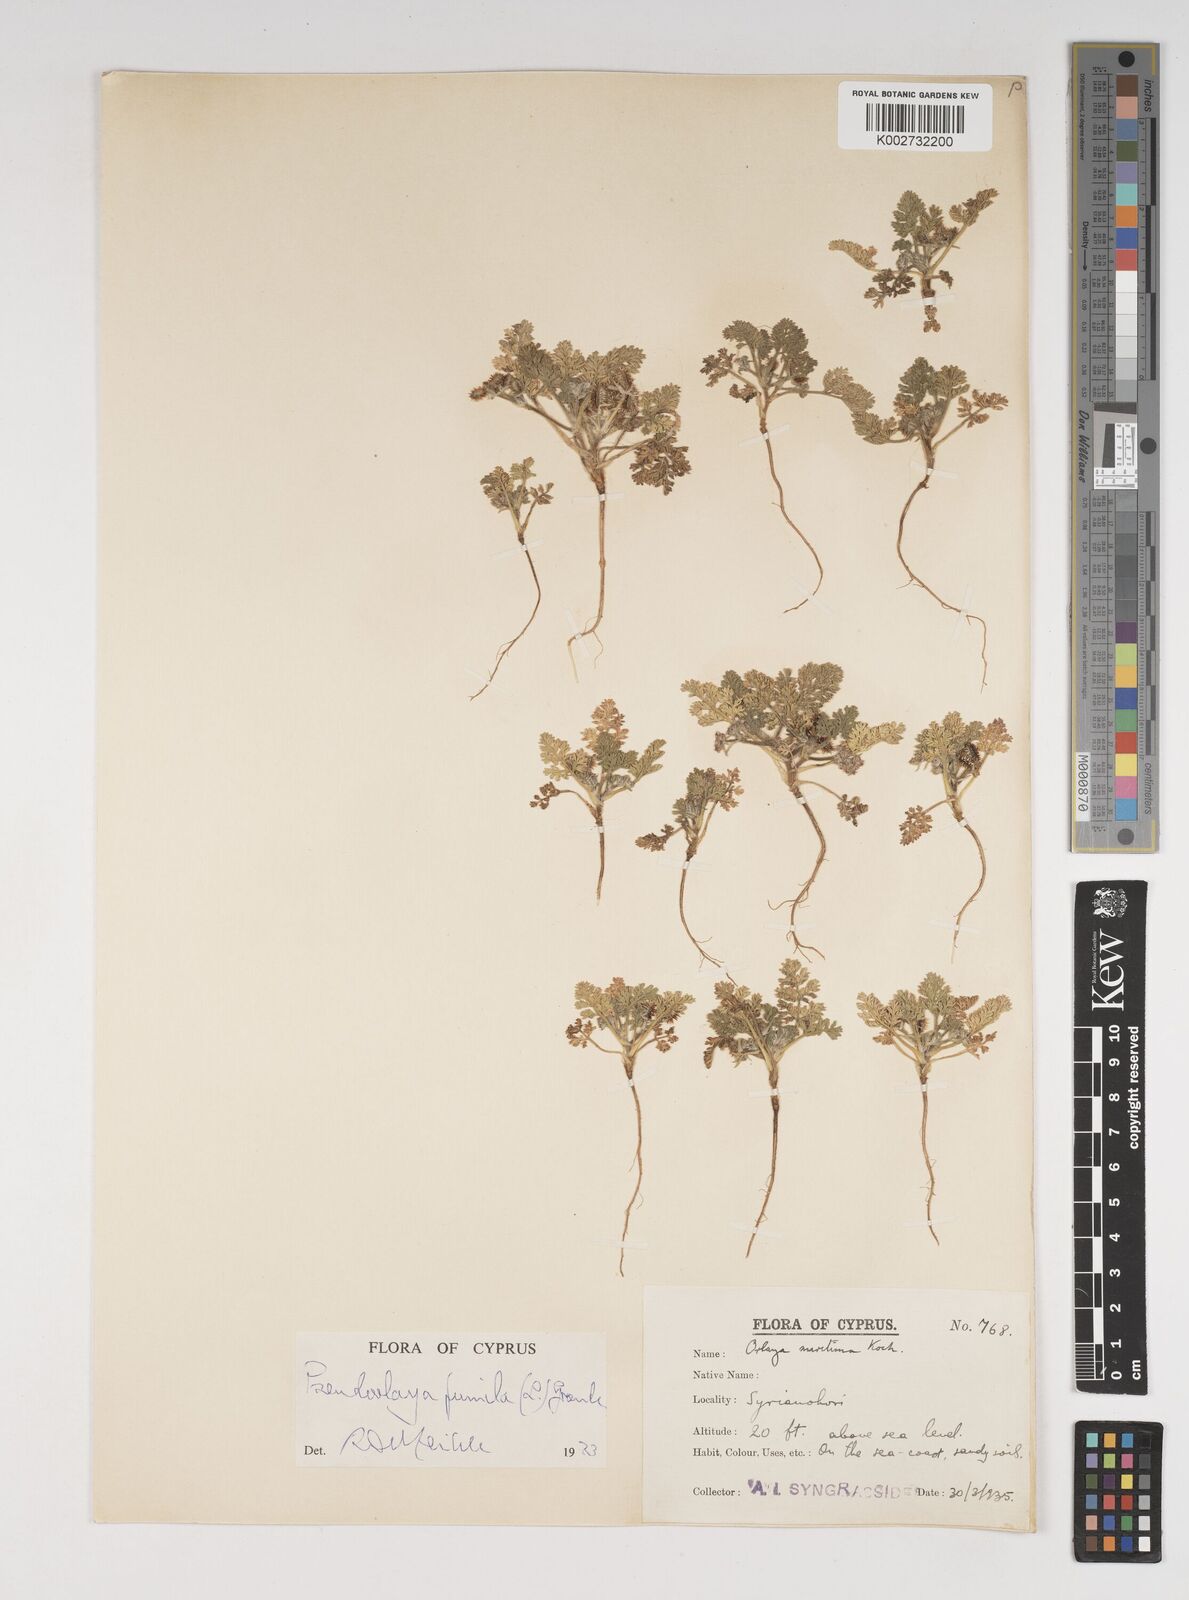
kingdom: Plantae
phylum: Tracheophyta
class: Magnoliopsida
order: Apiales
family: Apiaceae
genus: Daucus
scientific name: Daucus pumilus
